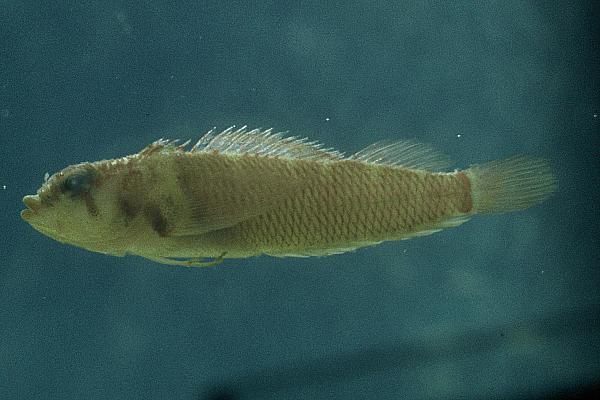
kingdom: Animalia
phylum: Chordata
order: Perciformes
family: Tripterygiidae
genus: Acanthanectes
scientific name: Acanthanectes rufus
